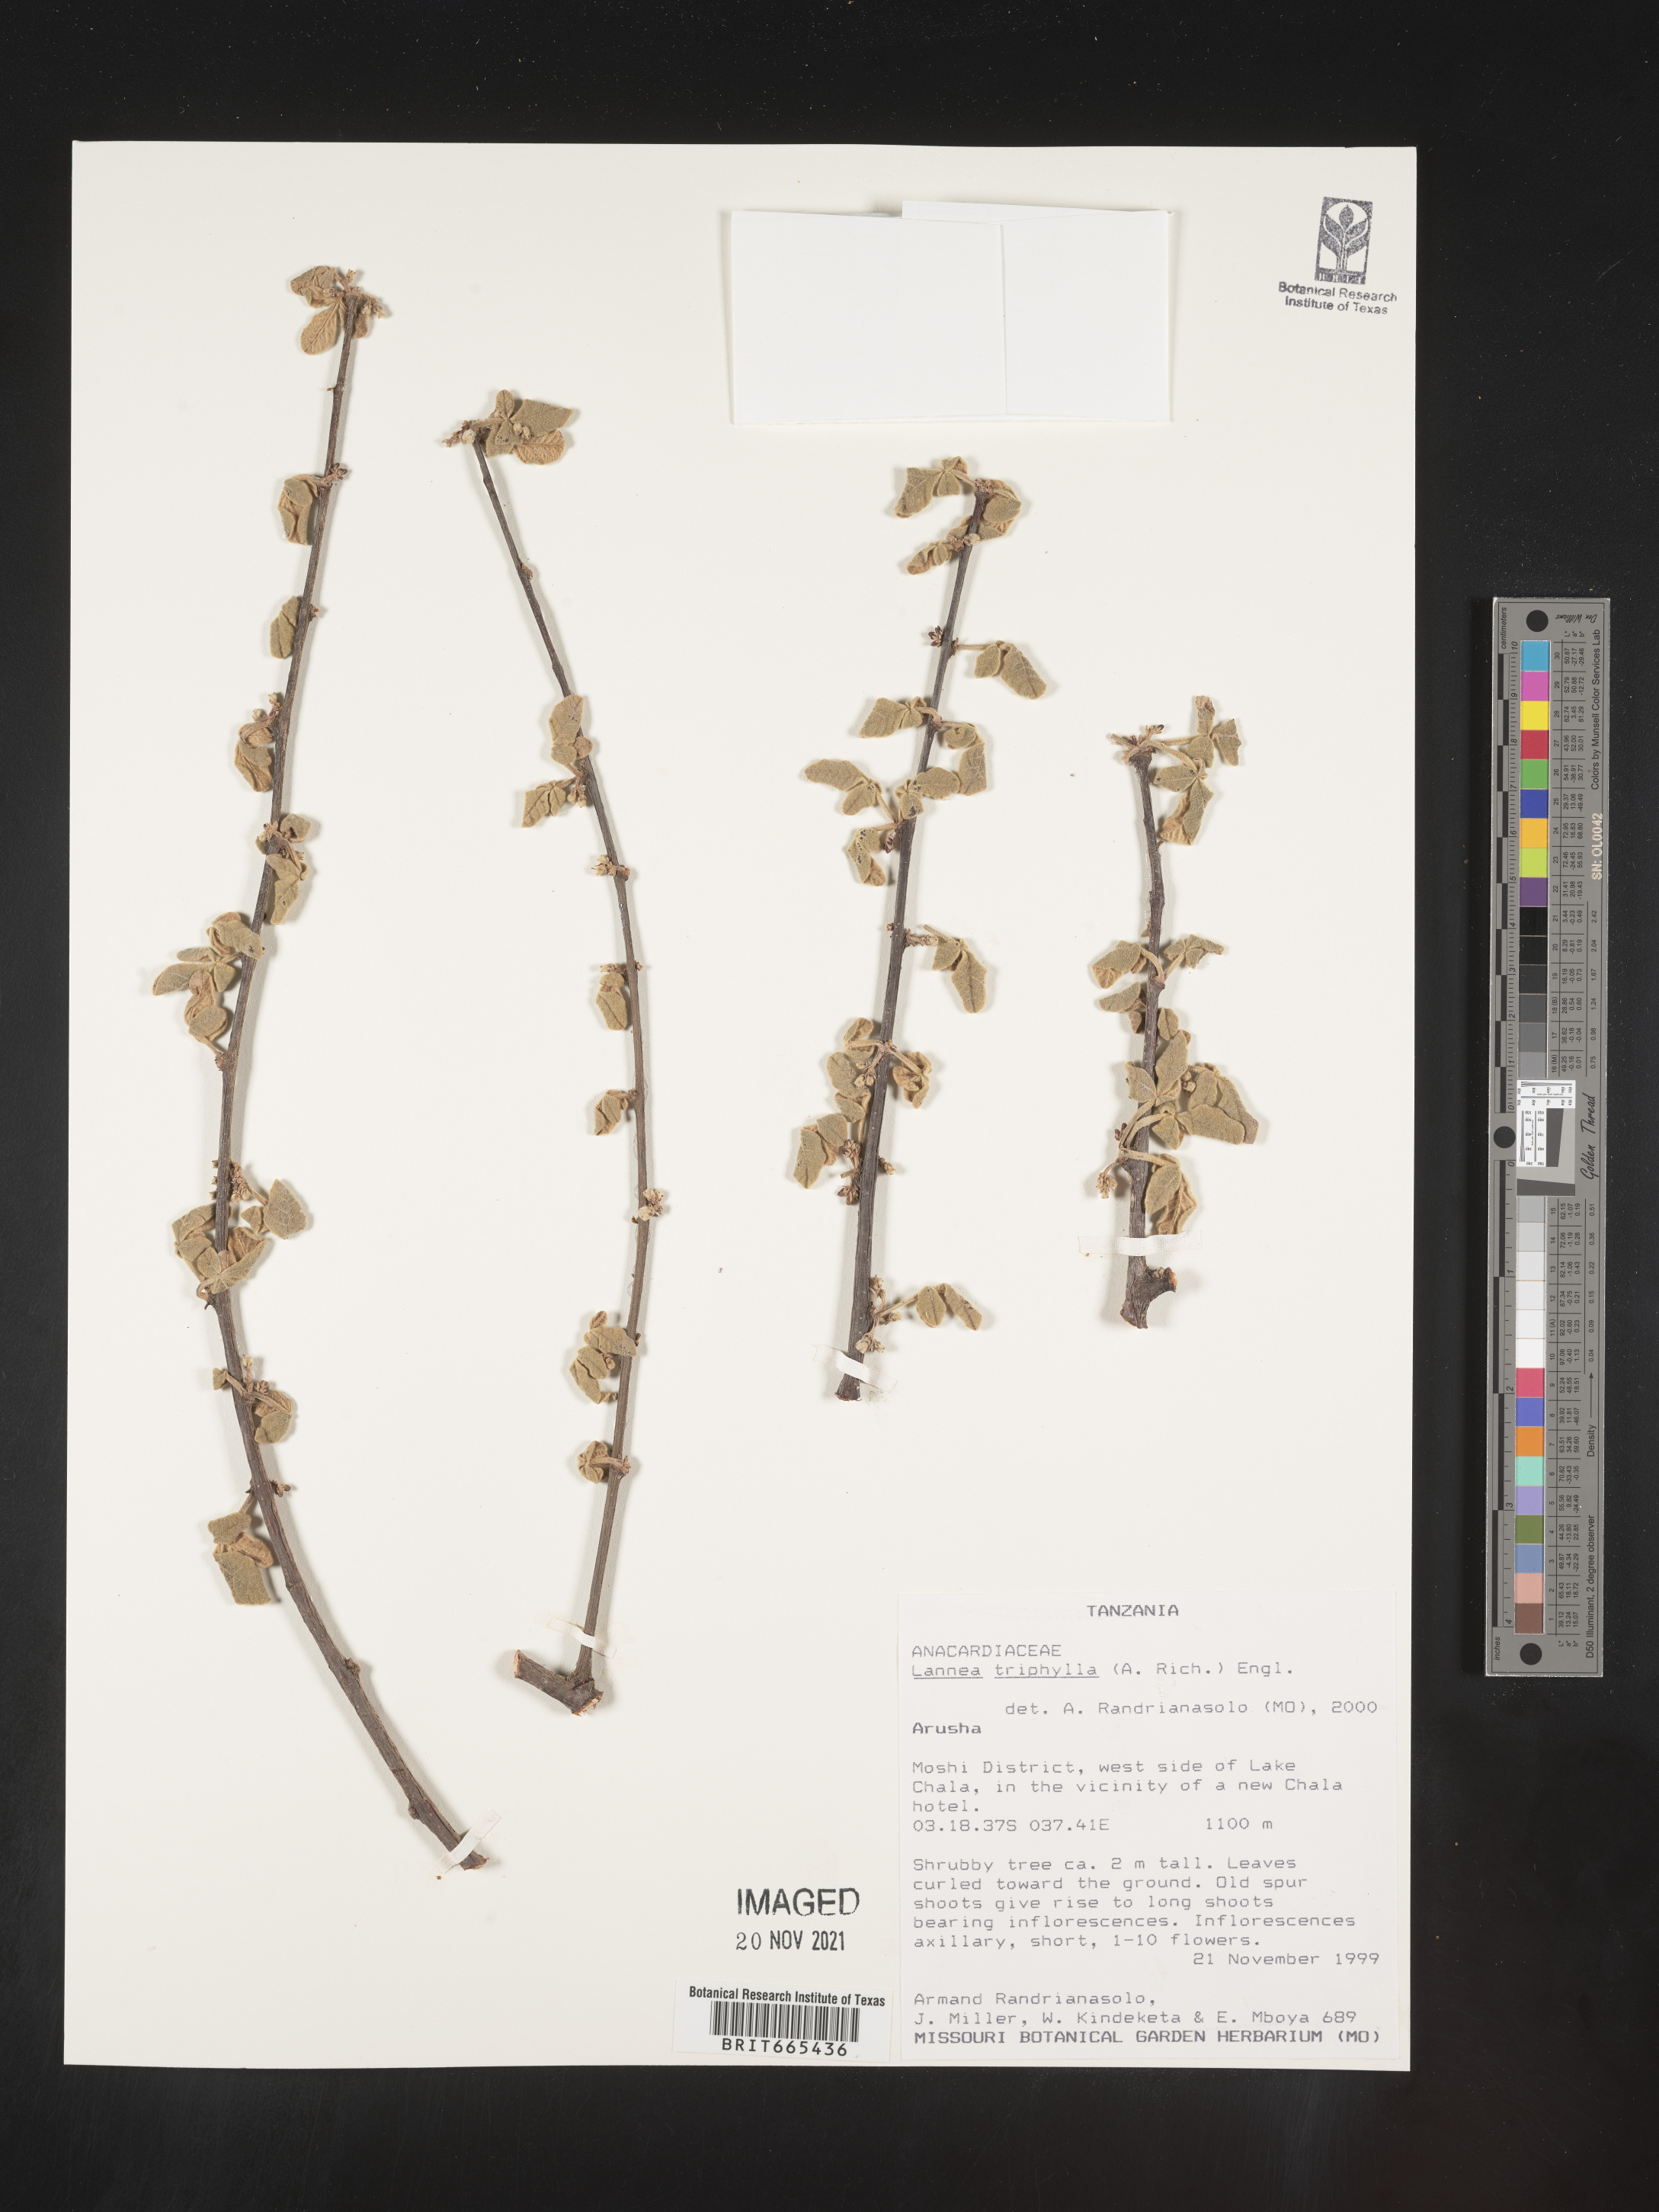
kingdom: Plantae
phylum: Tracheophyta
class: Magnoliopsida
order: Sapindales
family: Anacardiaceae
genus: Lannea
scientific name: Lannea
